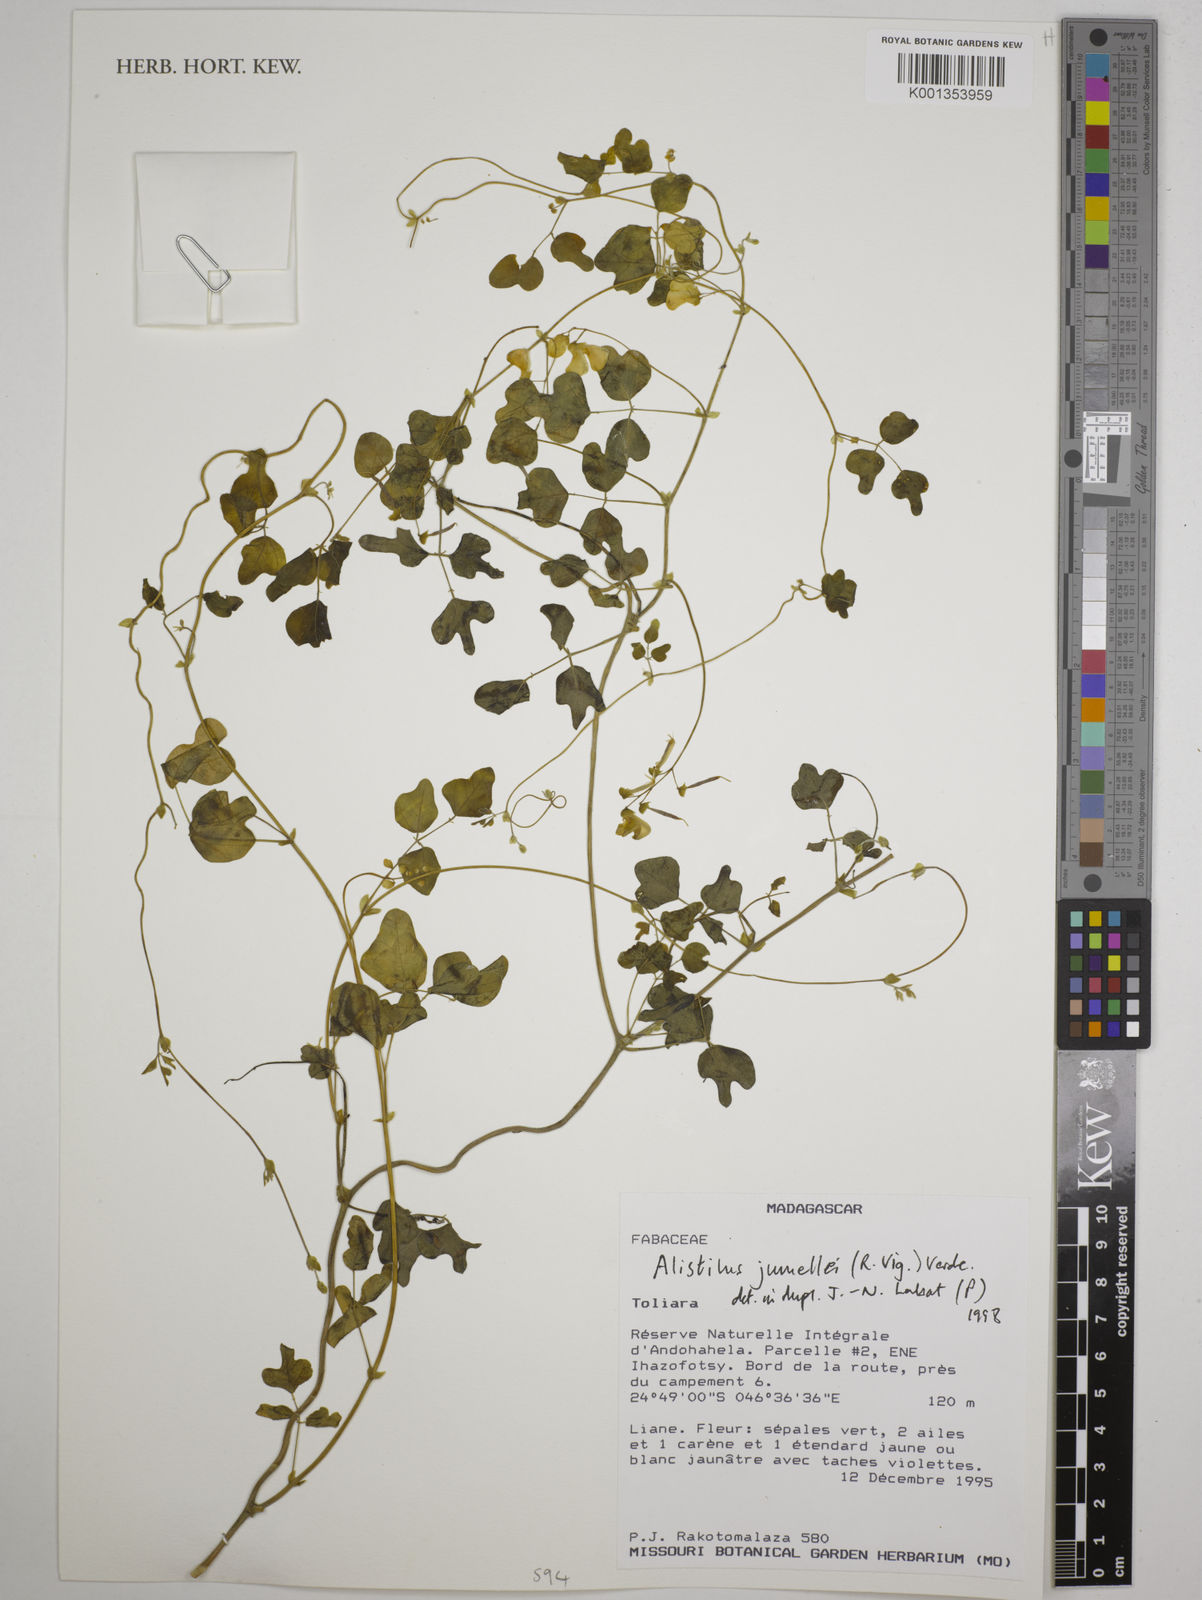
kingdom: Plantae
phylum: Tracheophyta
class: Magnoliopsida
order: Fabales
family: Fabaceae
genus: Alistilus
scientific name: Alistilus jumellei
